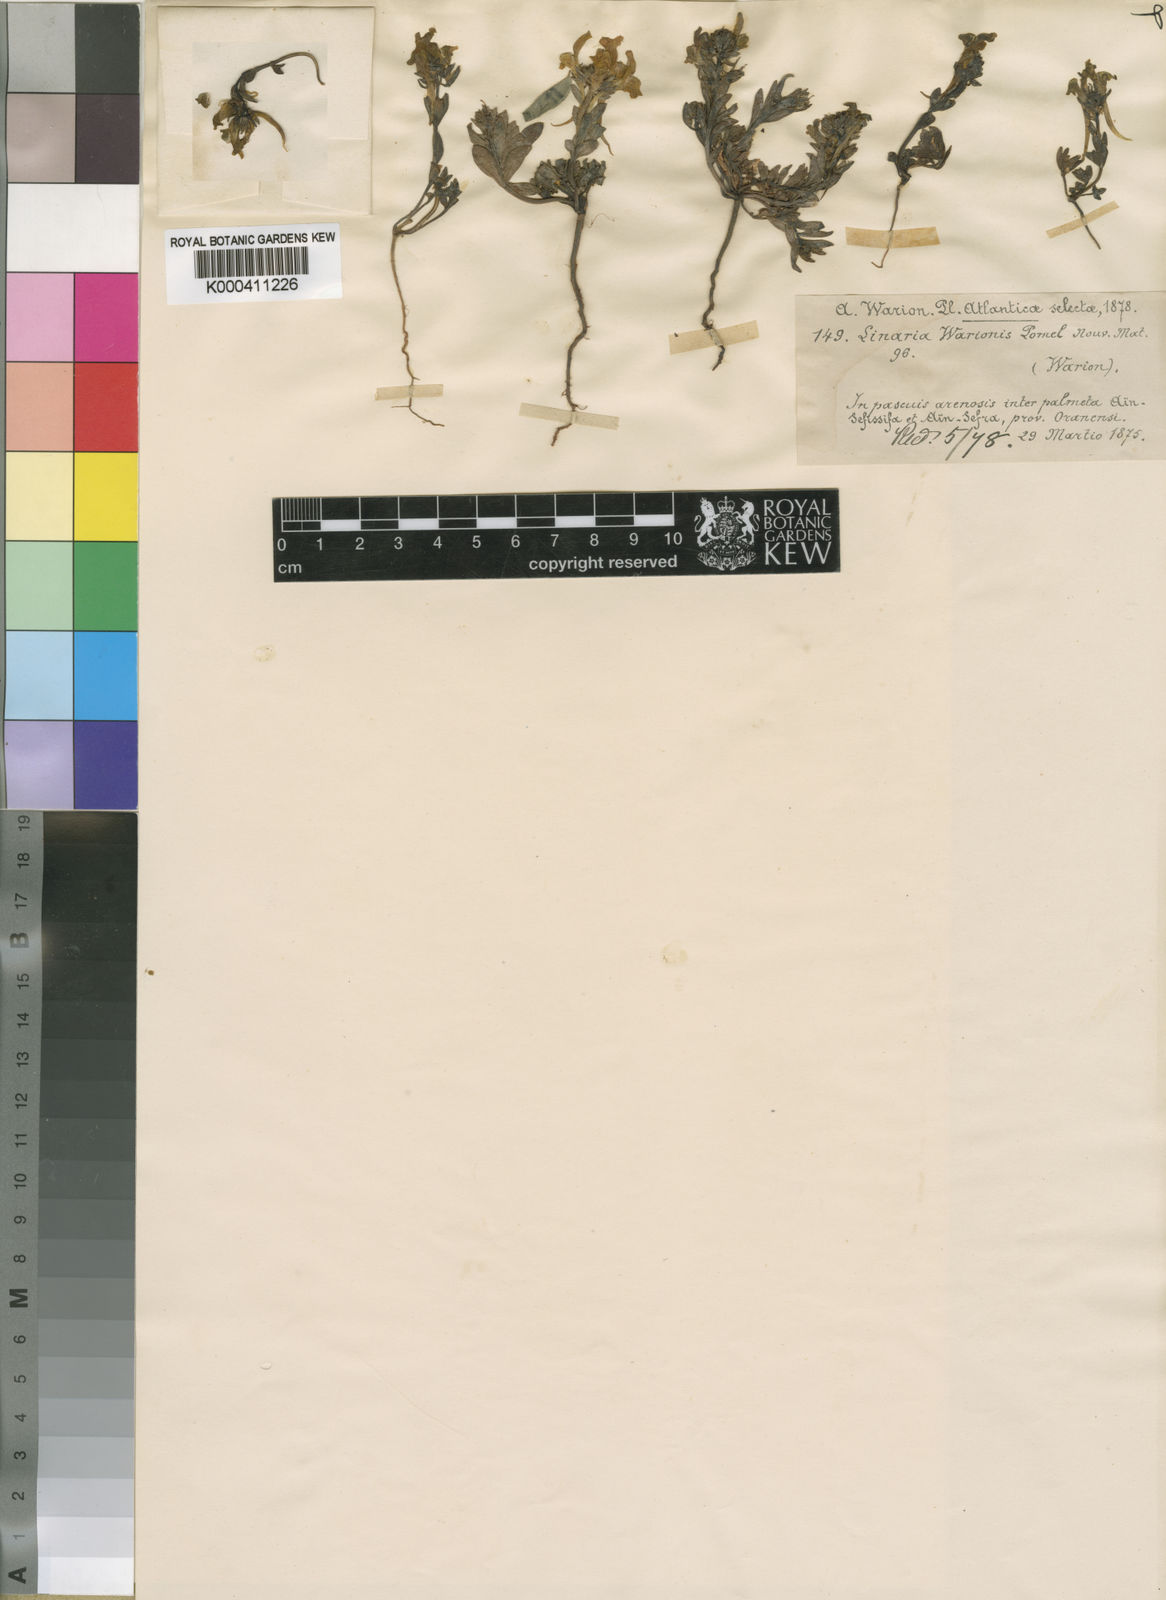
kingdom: Plantae
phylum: Tracheophyta
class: Magnoliopsida
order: Lamiales
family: Plantaginaceae
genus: Linaria
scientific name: Linaria warionis
